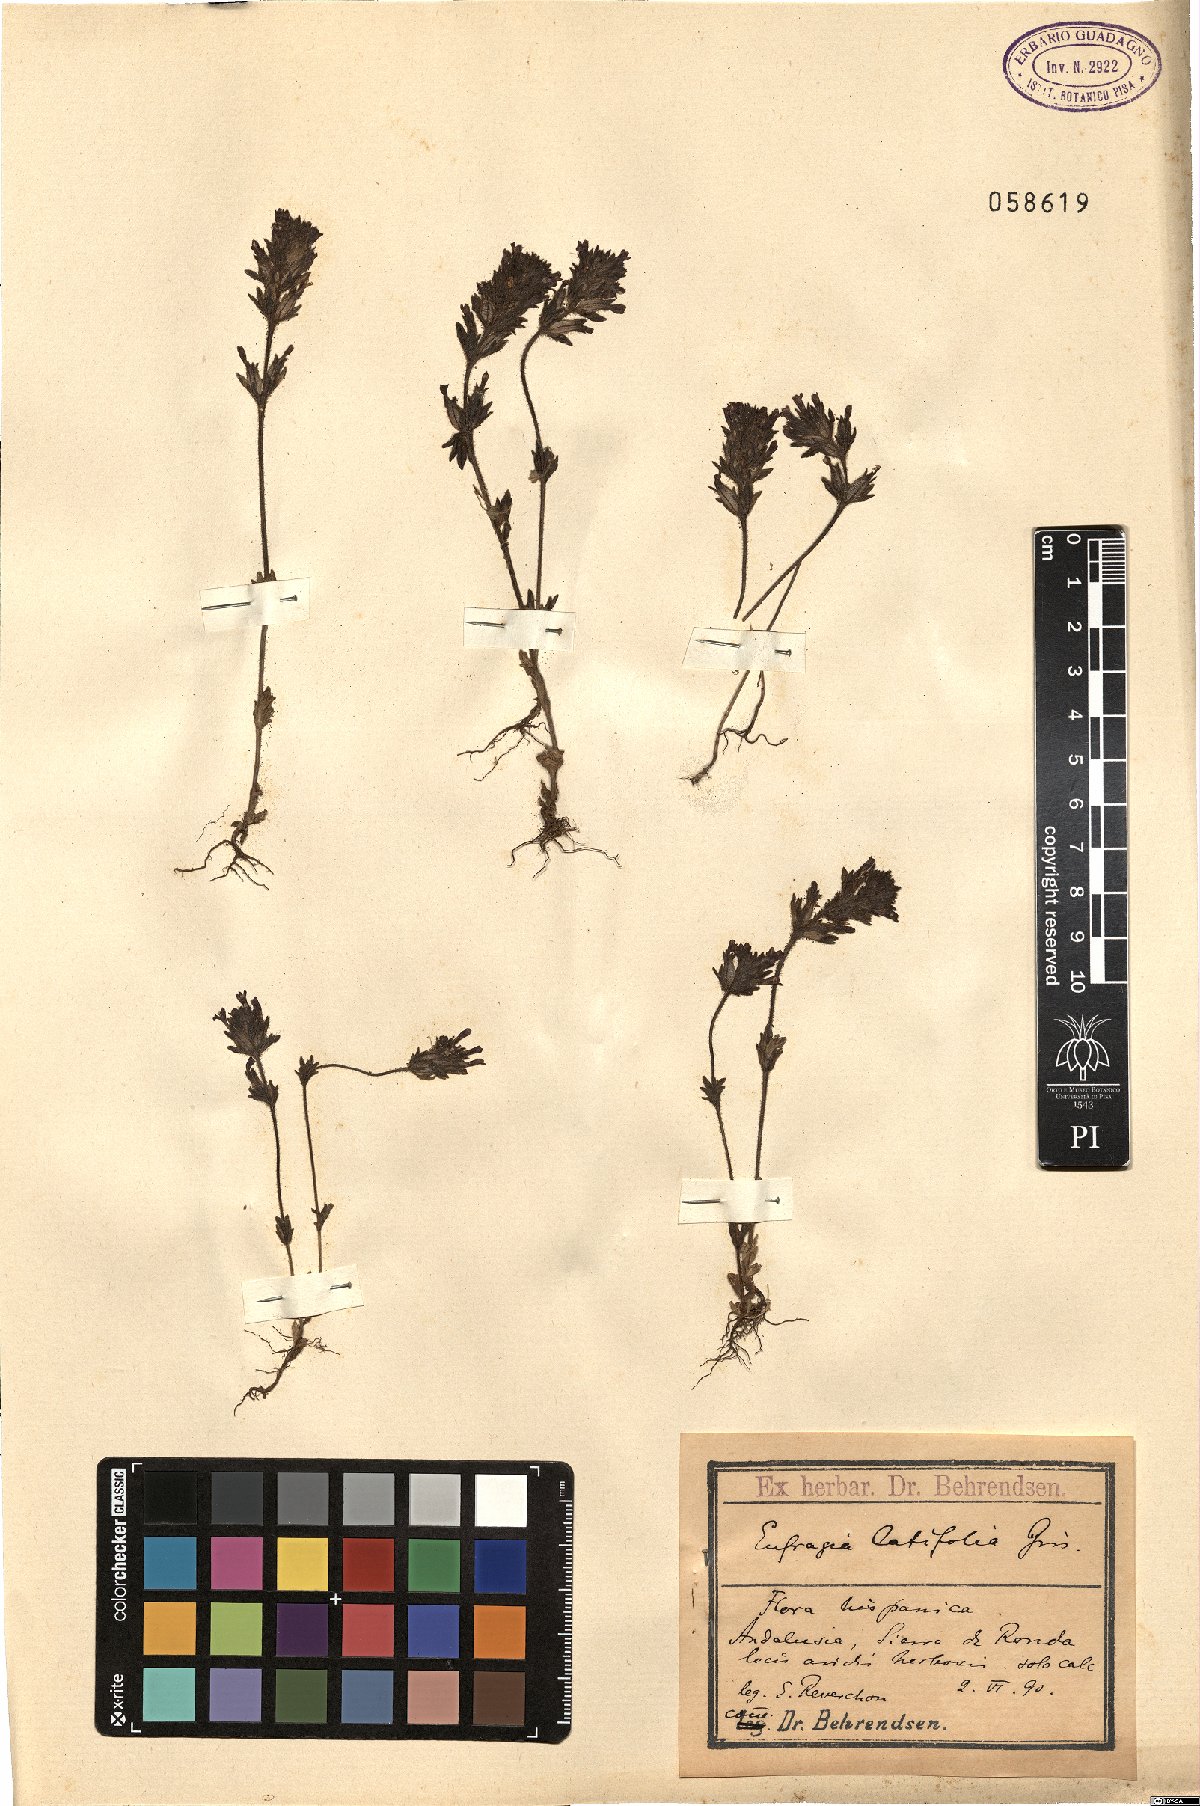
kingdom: Plantae
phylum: Tracheophyta
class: Magnoliopsida
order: Lamiales
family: Orobanchaceae
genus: Parentucellia
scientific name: Parentucellia latifolia
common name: Broadleaf glandweed
